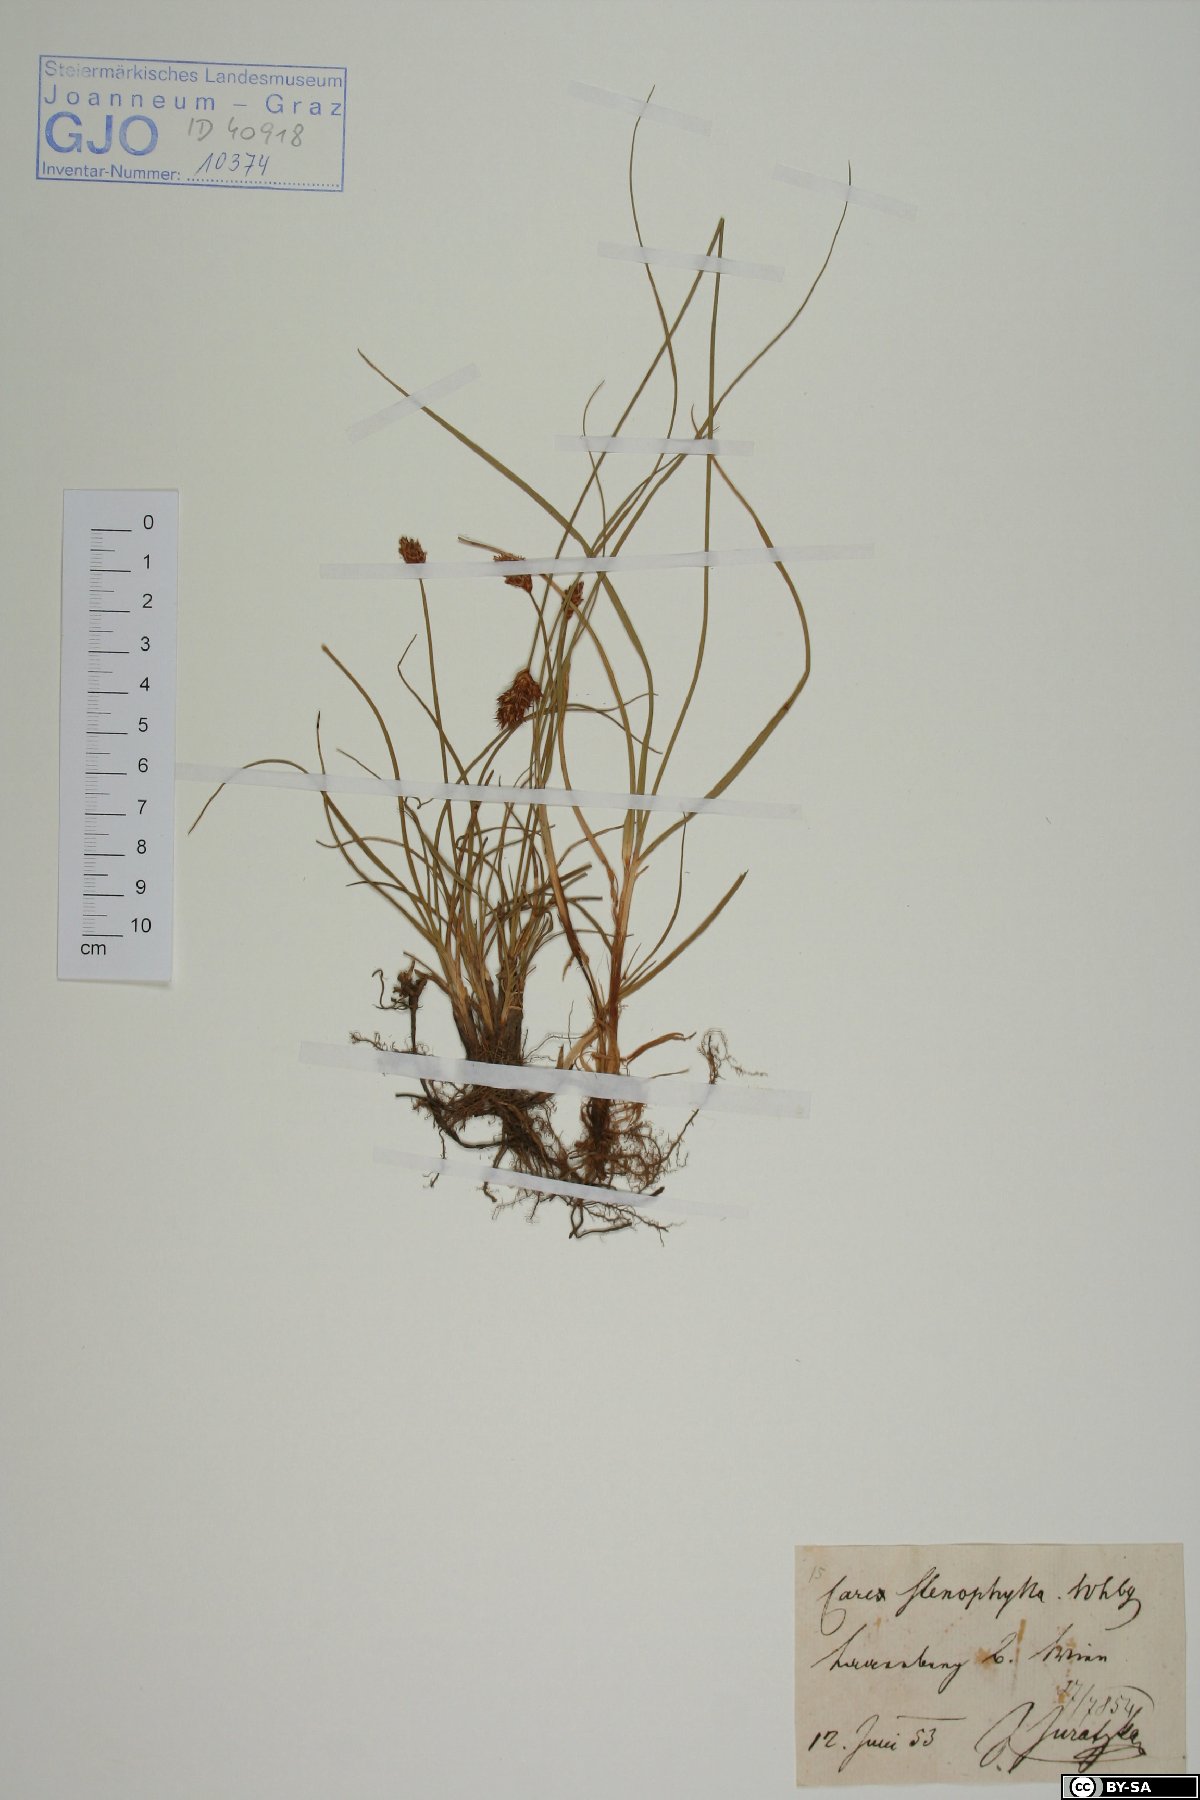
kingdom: Plantae
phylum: Tracheophyta
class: Liliopsida
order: Poales
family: Cyperaceae
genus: Carex
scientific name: Carex stenophylla
